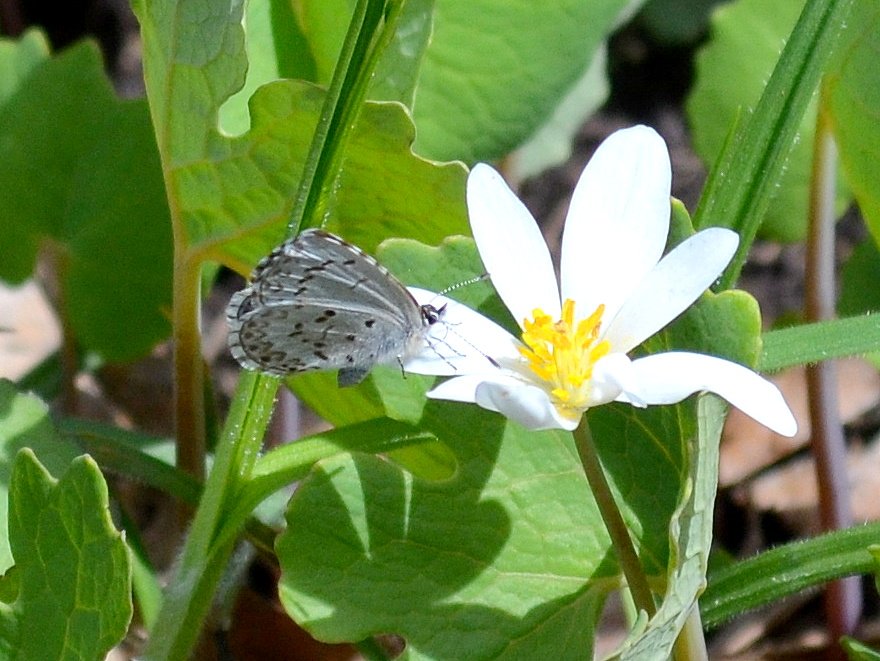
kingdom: Animalia
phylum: Arthropoda
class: Insecta
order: Lepidoptera
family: Lycaenidae
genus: Celastrina
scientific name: Celastrina lucia
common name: Northern Spring Azure
